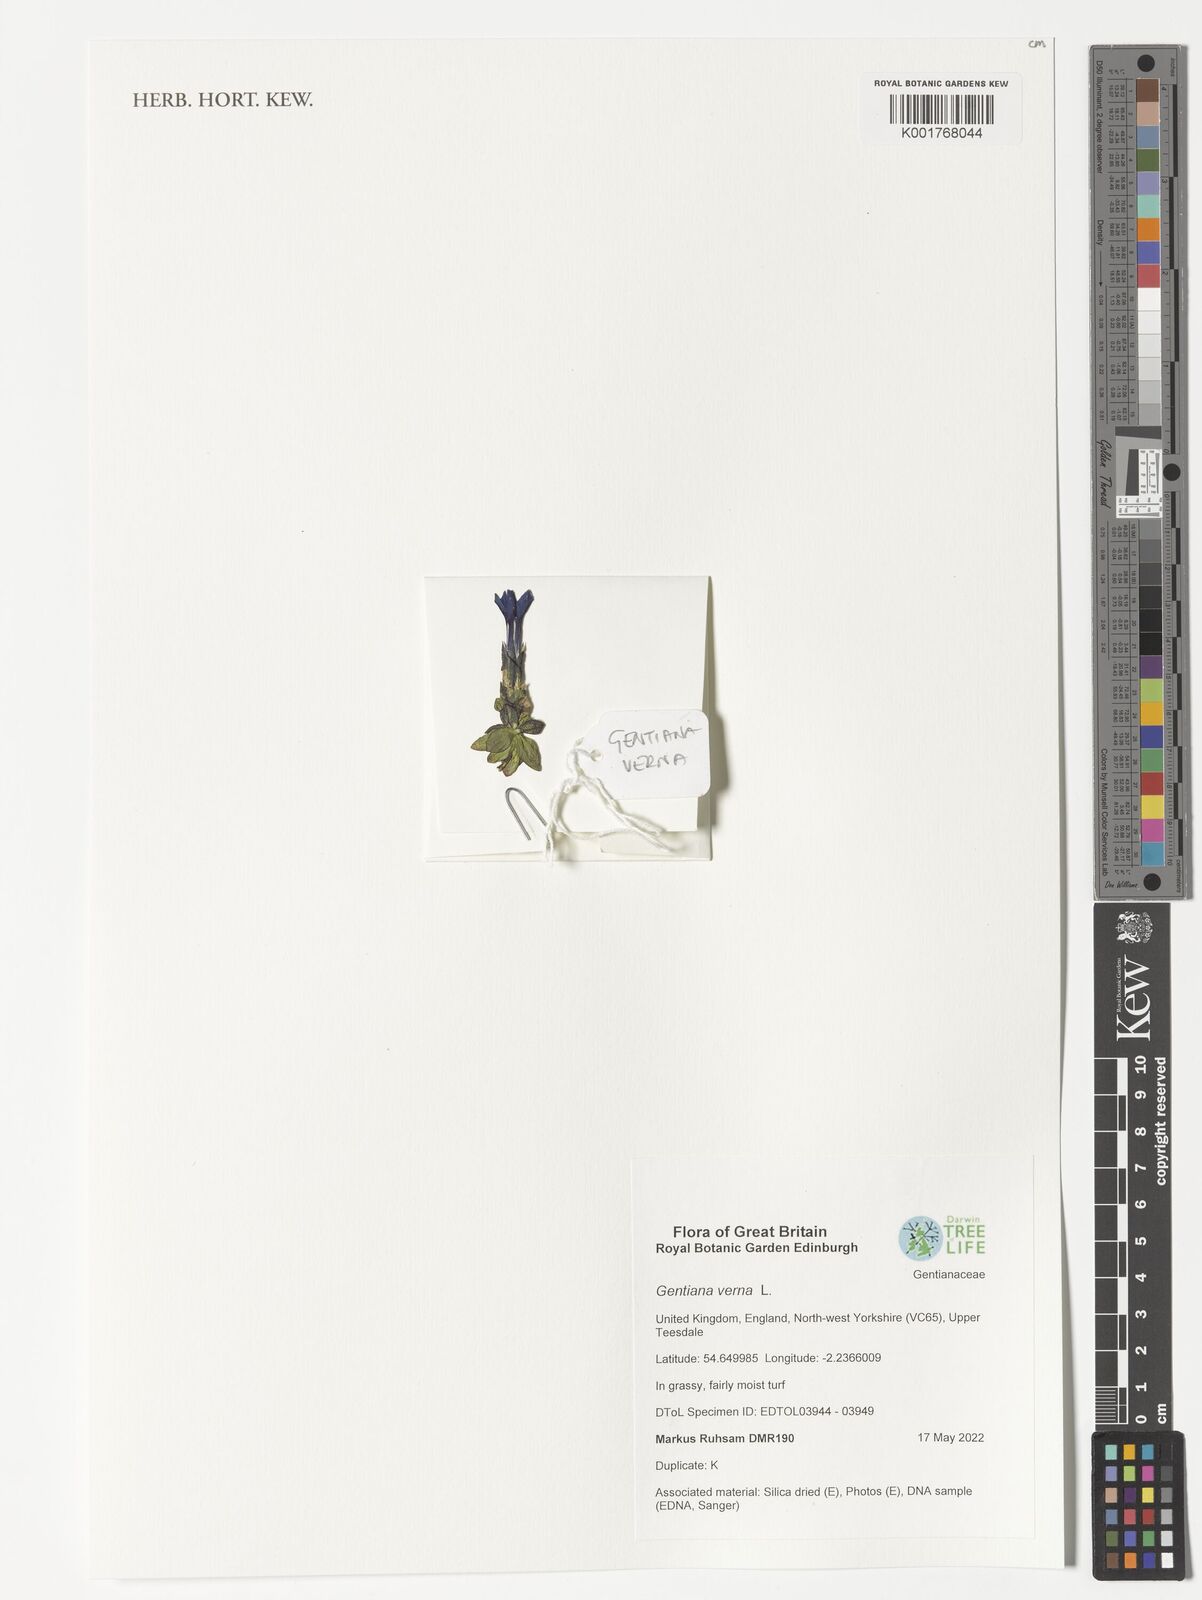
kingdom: Plantae
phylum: Tracheophyta
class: Magnoliopsida
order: Gentianales
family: Gentianaceae
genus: Gentiana
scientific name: Gentiana verna
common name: Spring gentian
